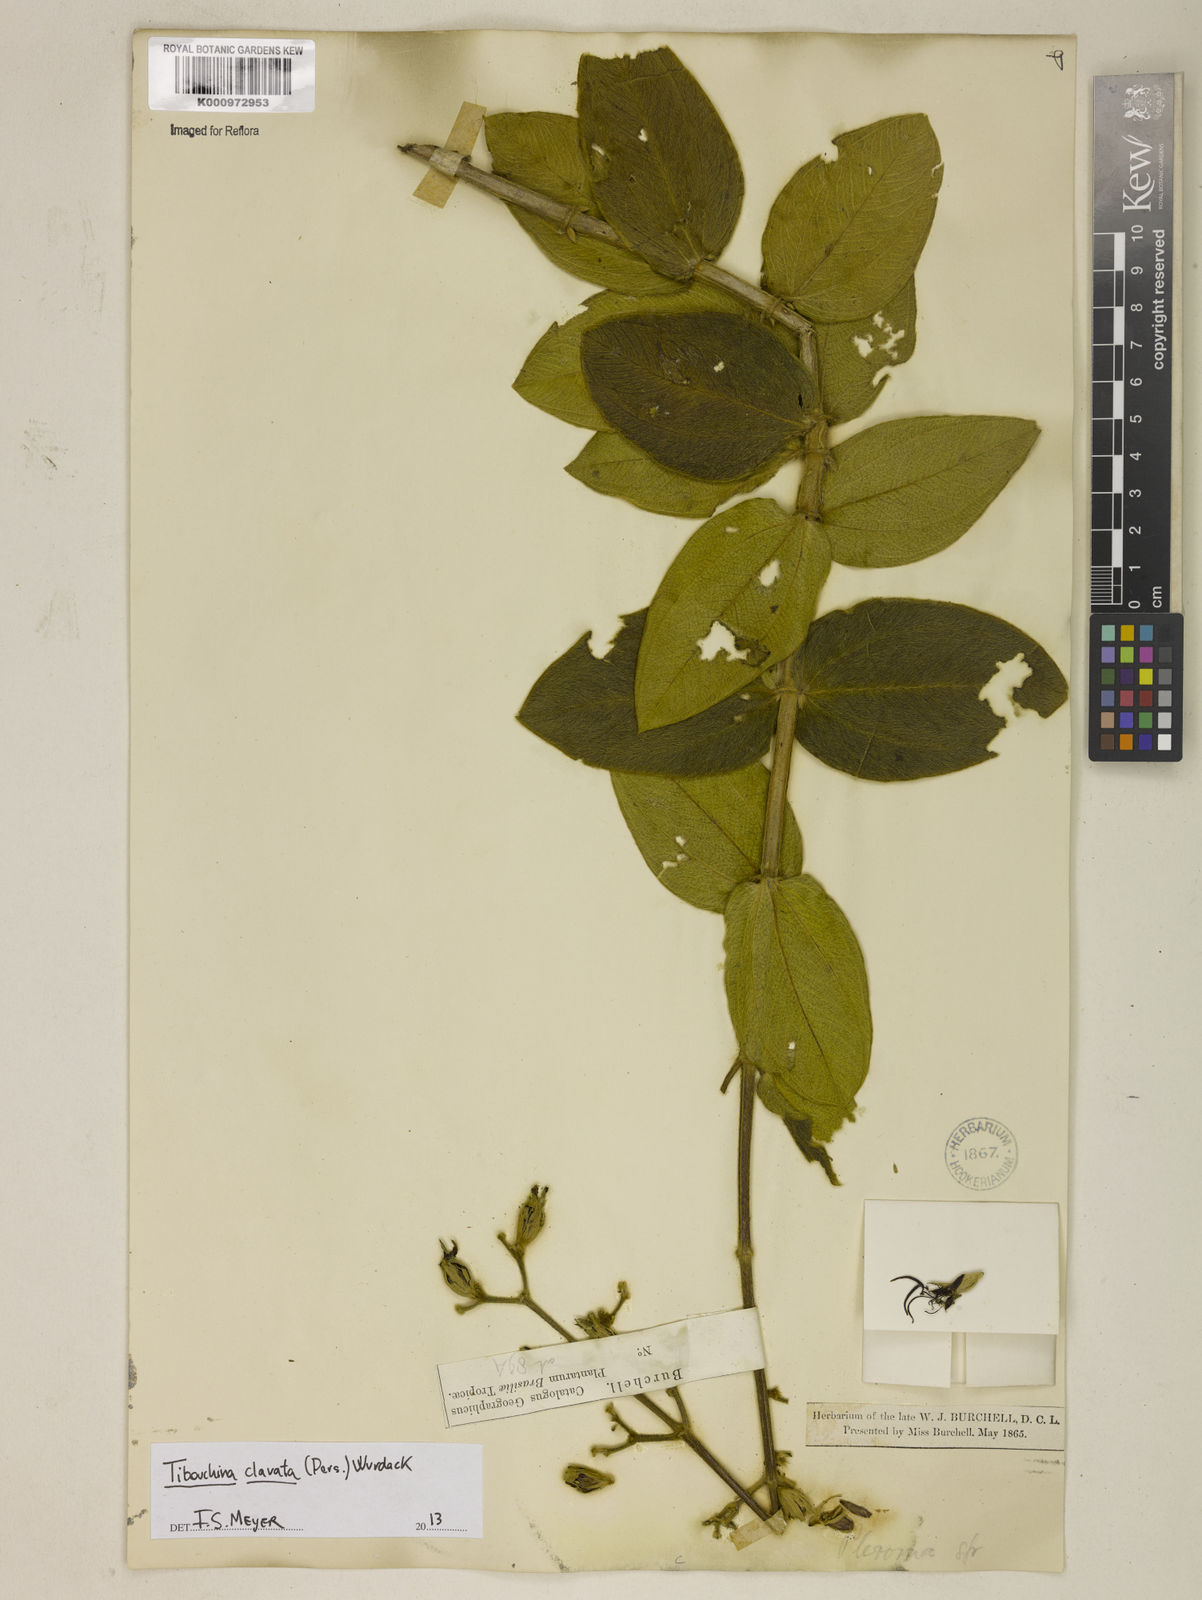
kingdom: Plantae
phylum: Tracheophyta
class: Magnoliopsida
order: Myrtales
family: Melastomataceae
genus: Pleroma
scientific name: Pleroma clavatum
